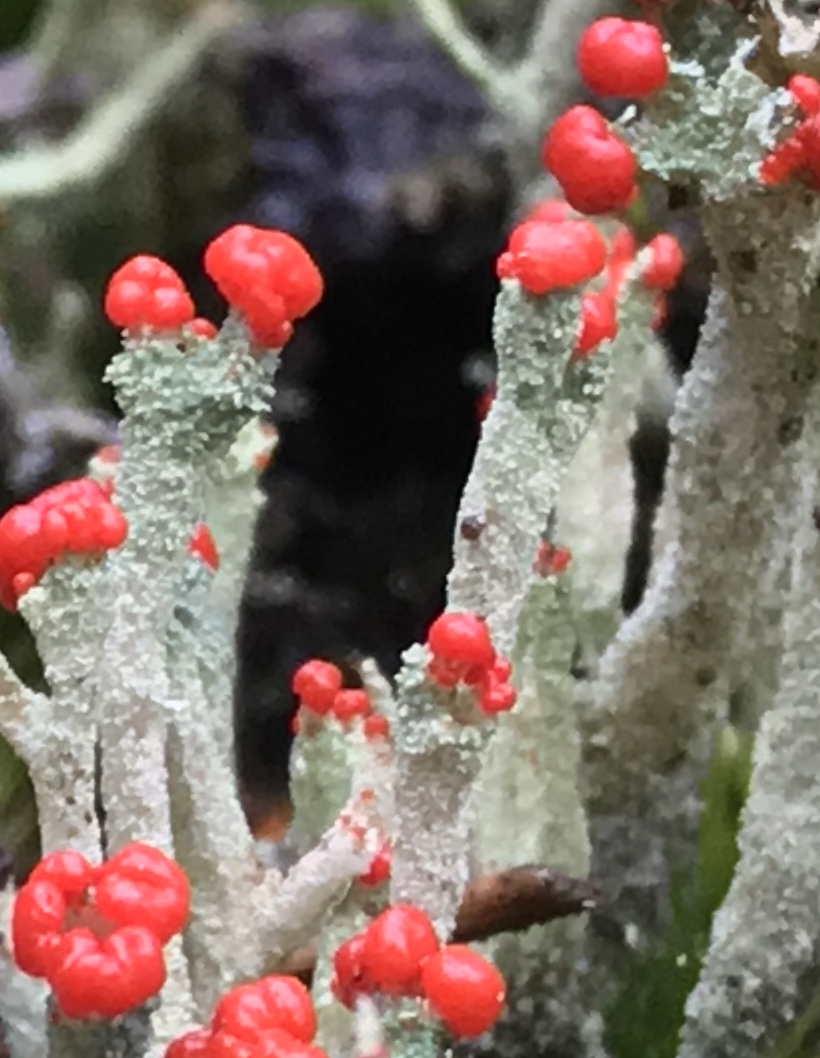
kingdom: Fungi
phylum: Ascomycota
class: Lecanoromycetes
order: Lecanorales
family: Cladoniaceae
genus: Cladonia
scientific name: Cladonia floerkeana
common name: lakrød bægerlav
